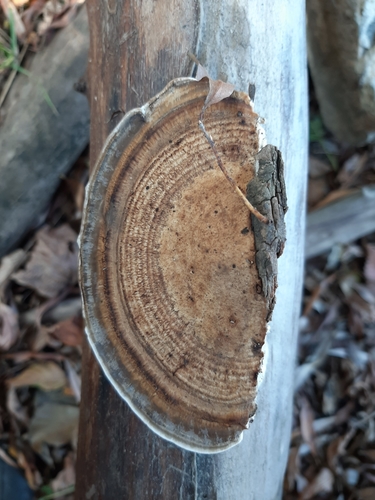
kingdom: Fungi
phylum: Basidiomycota
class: Agaricomycetes
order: Polyporales
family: Polyporaceae
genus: Daedaleopsis
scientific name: Daedaleopsis confragosa
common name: Blushing bracket
